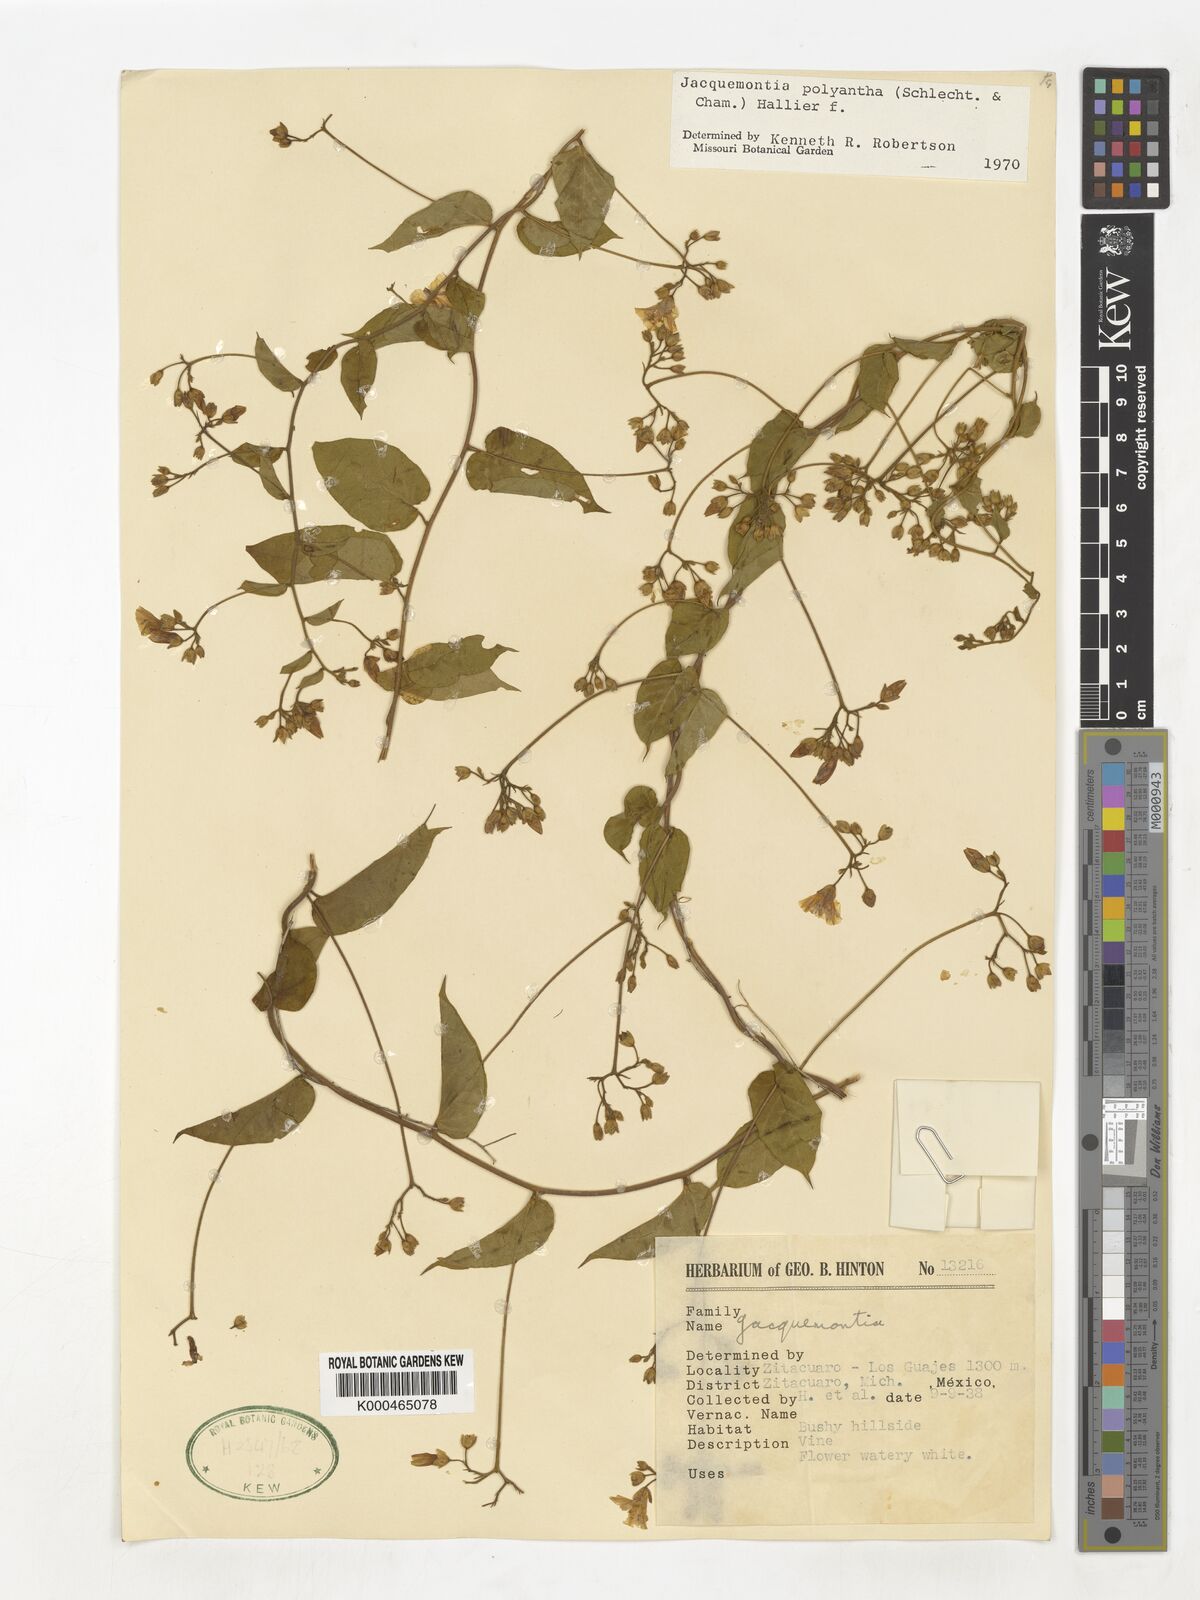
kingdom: Plantae
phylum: Tracheophyta
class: Magnoliopsida
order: Solanales
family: Convolvulaceae
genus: Jacquemontia
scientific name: Jacquemontia polyantha
